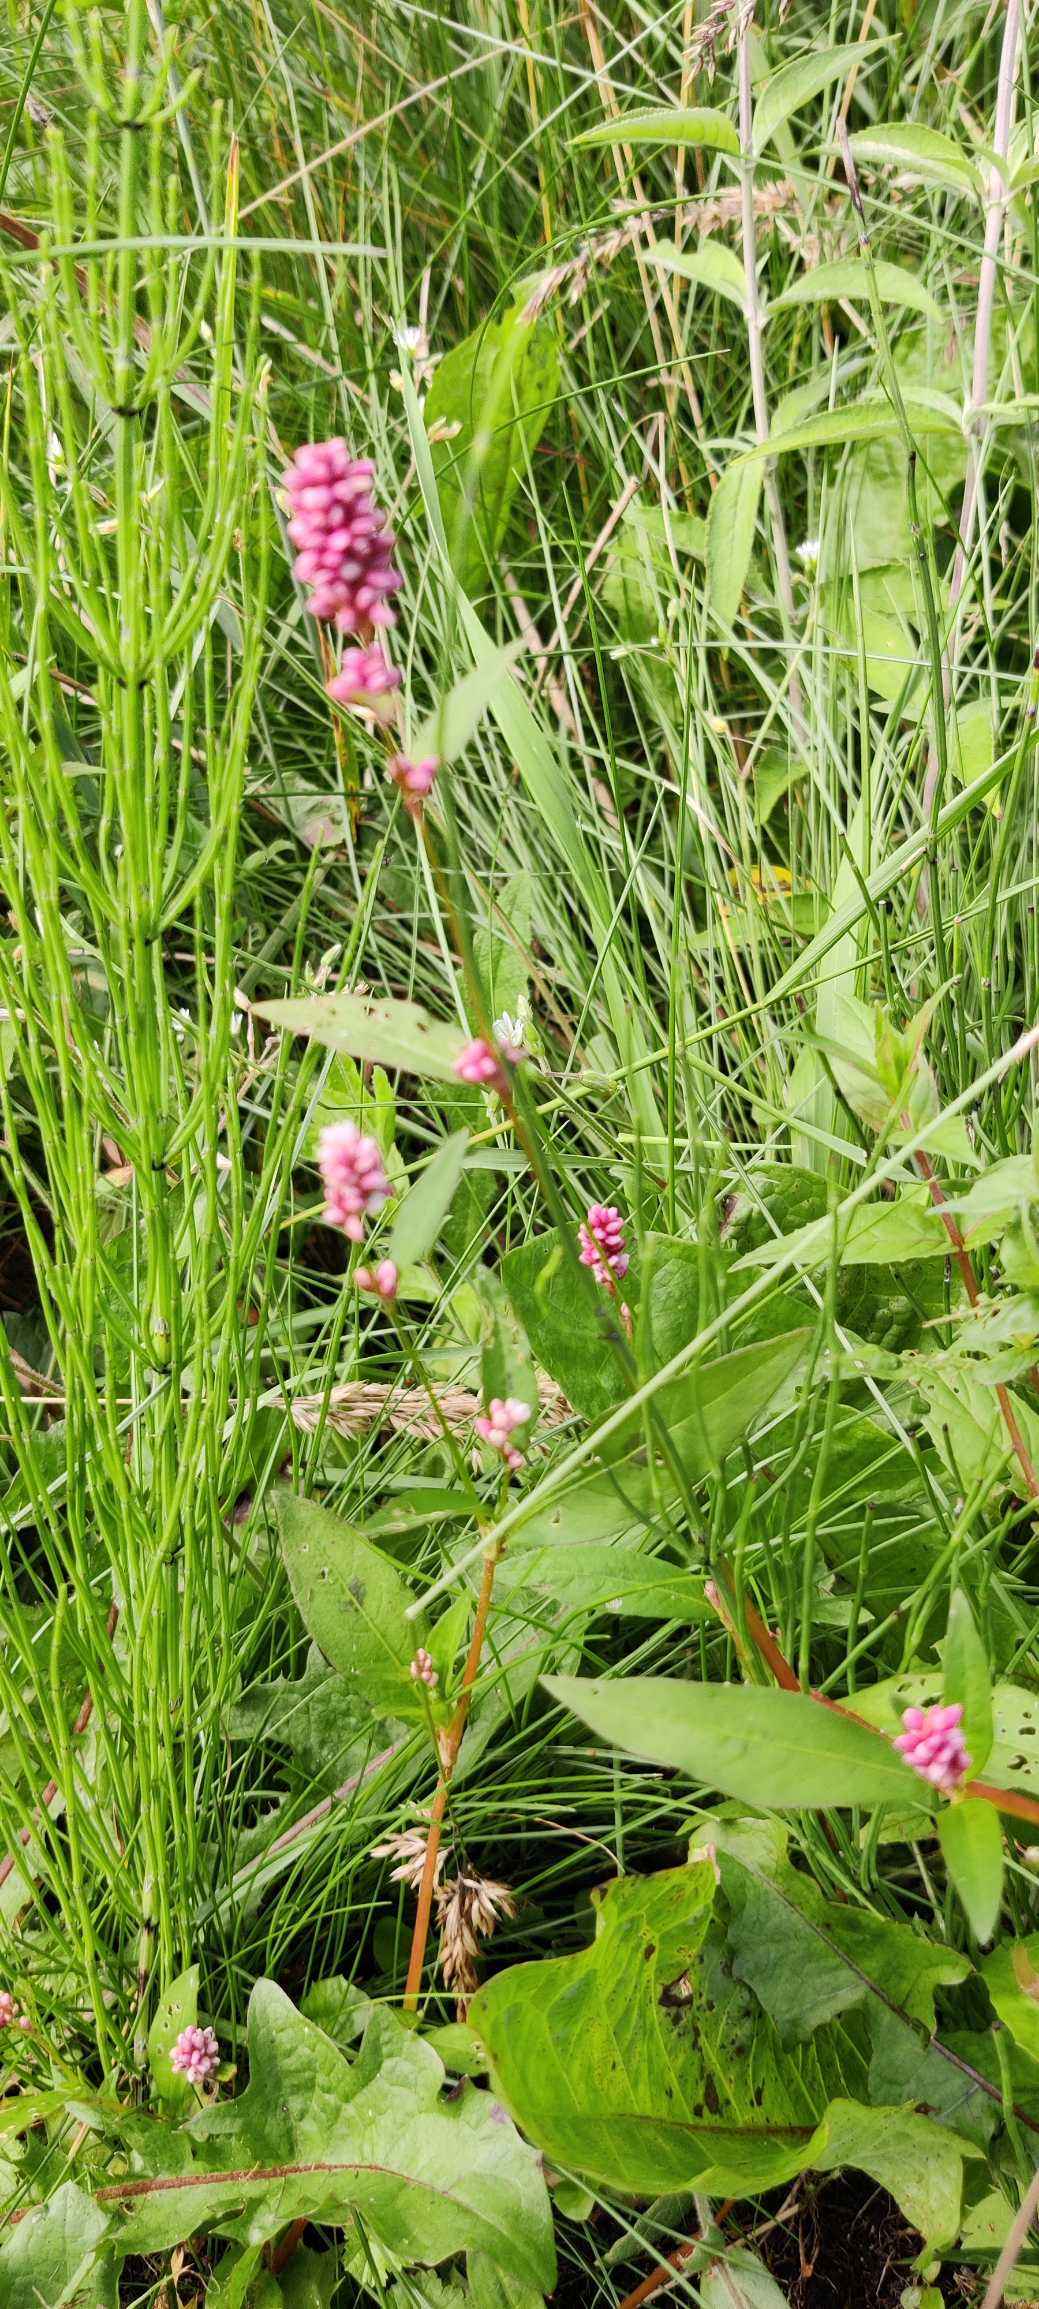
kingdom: Plantae
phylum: Tracheophyta
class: Magnoliopsida
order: Caryophyllales
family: Polygonaceae
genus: Persicaria
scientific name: Persicaria maculosa
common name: Fersken-pileurt
